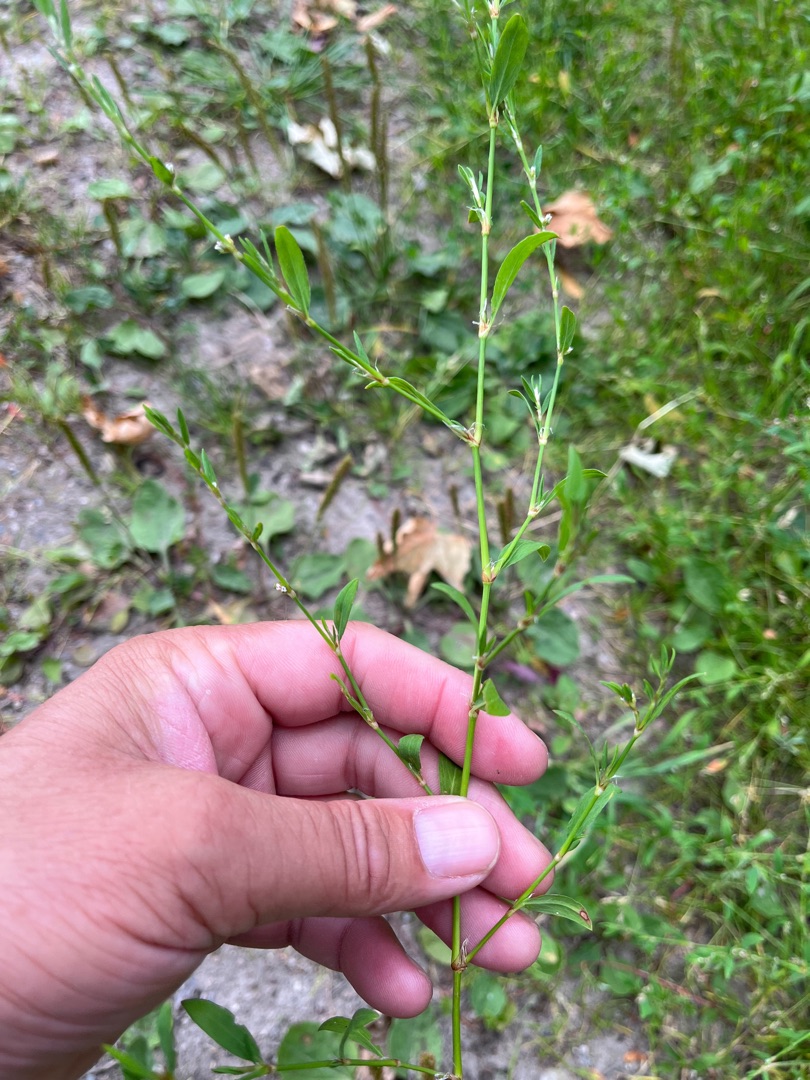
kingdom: Plantae
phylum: Tracheophyta
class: Magnoliopsida
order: Caryophyllales
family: Polygonaceae
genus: Polygonum
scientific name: Polygonum aviculare
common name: Vej-pileurt
